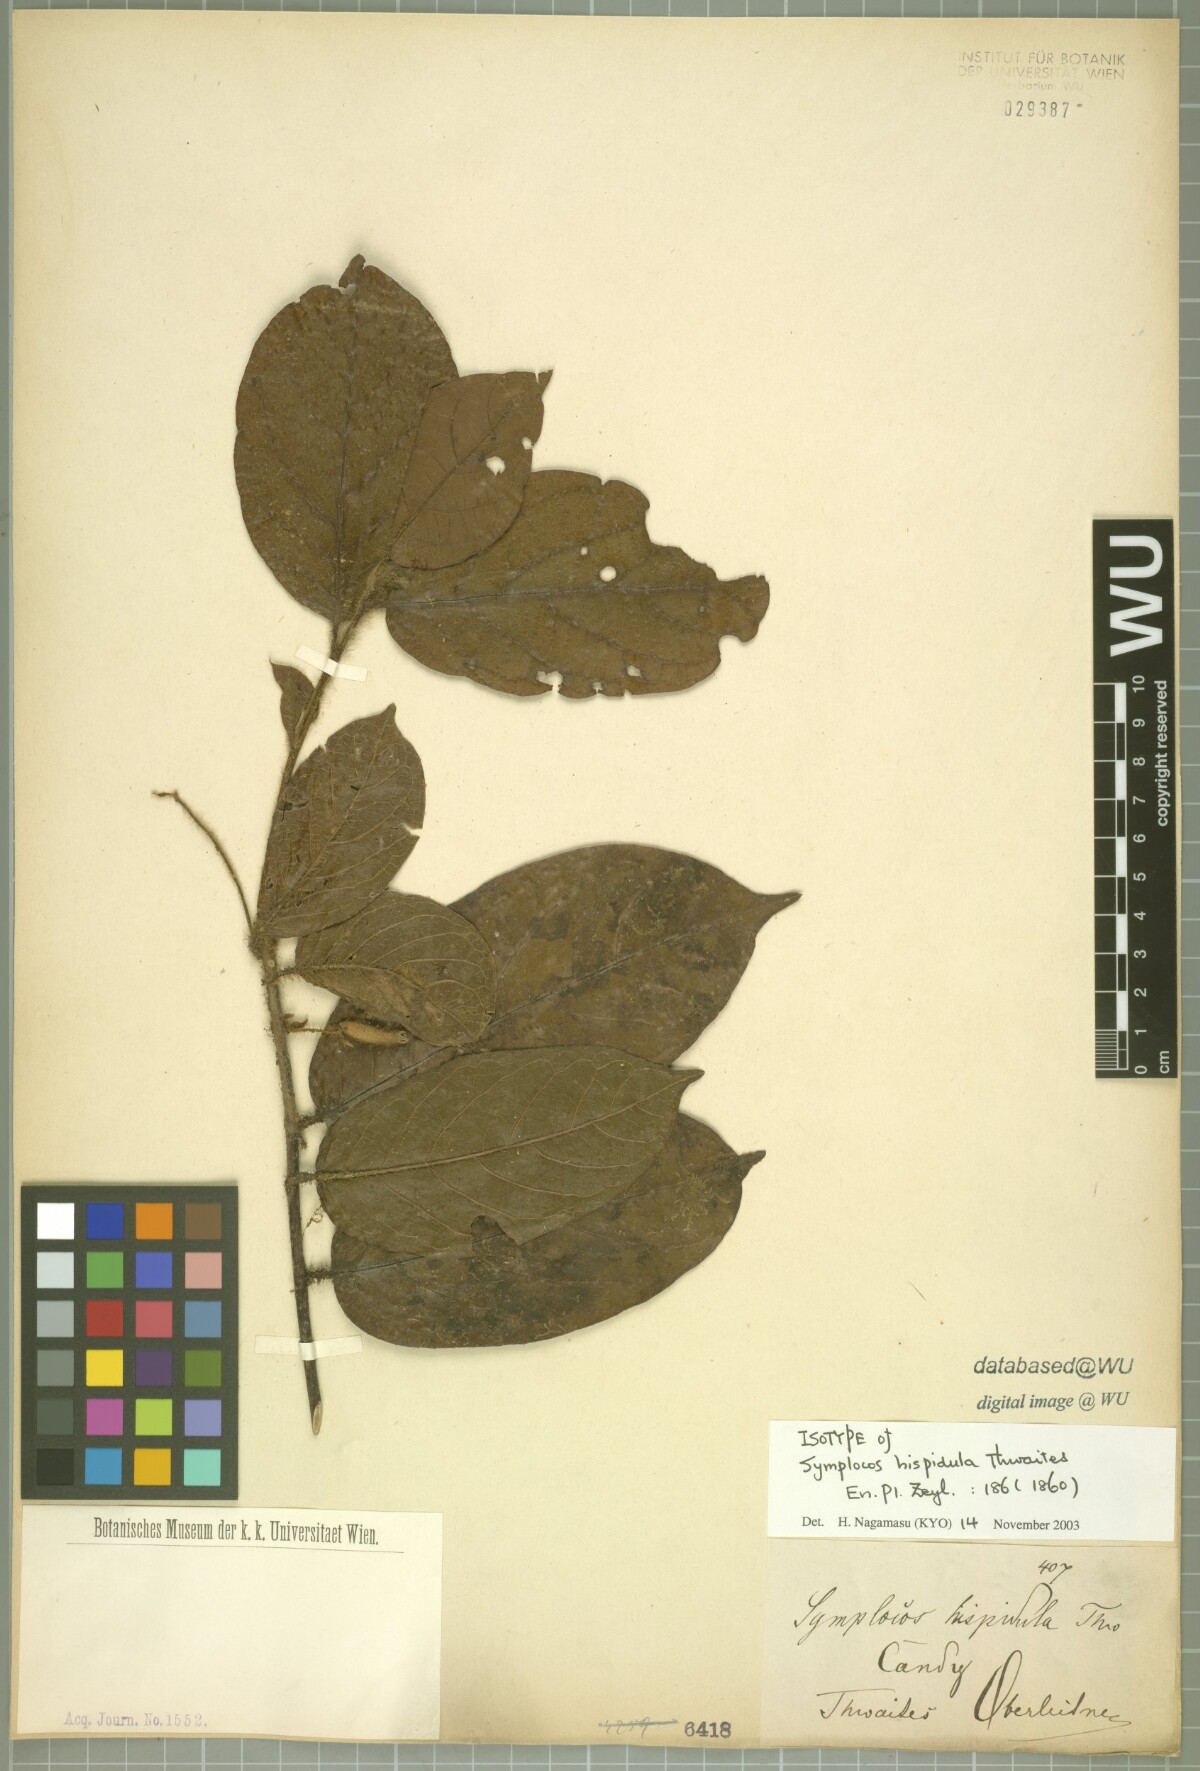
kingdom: Plantae
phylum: Tracheophyta
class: Magnoliopsida
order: Ericales
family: Symplocaceae
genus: Symplocos
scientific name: Symplocos pulchra
